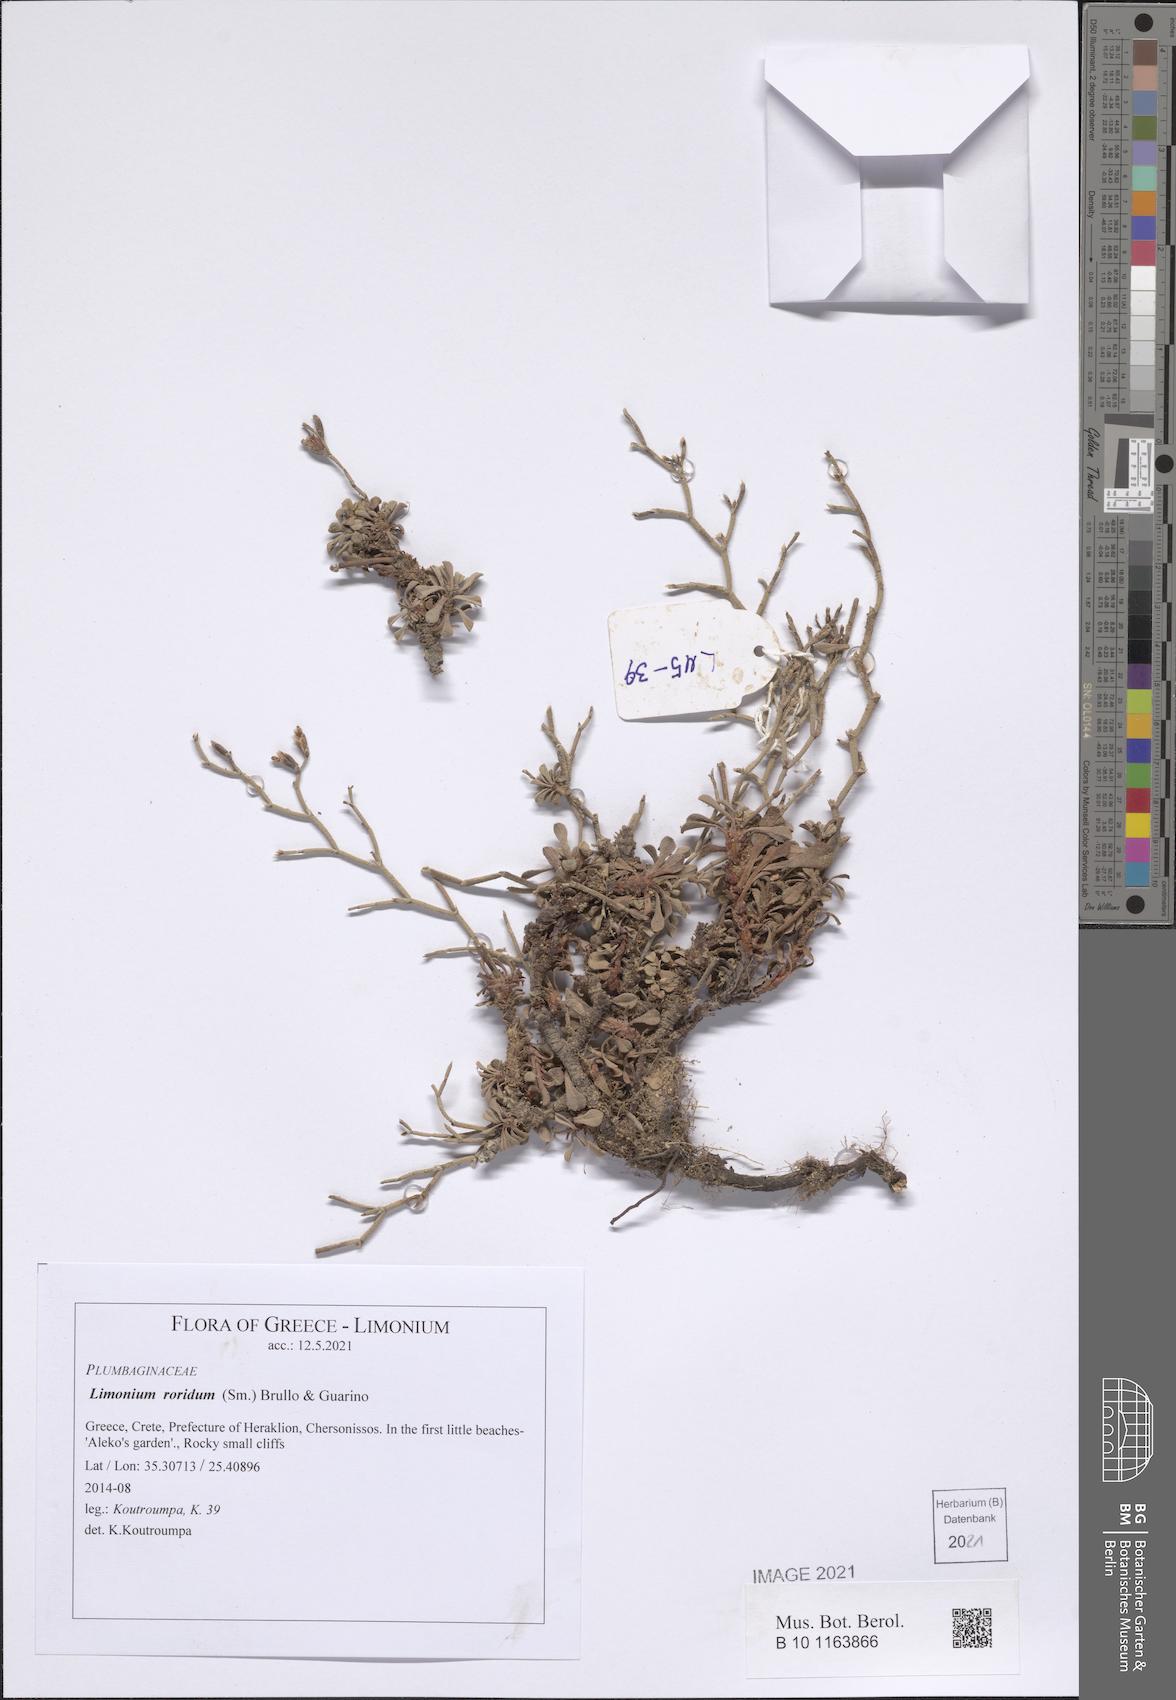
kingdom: Plantae
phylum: Tracheophyta
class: Magnoliopsida
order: Caryophyllales
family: Plumbaginaceae
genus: Limonium
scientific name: Limonium roridum
